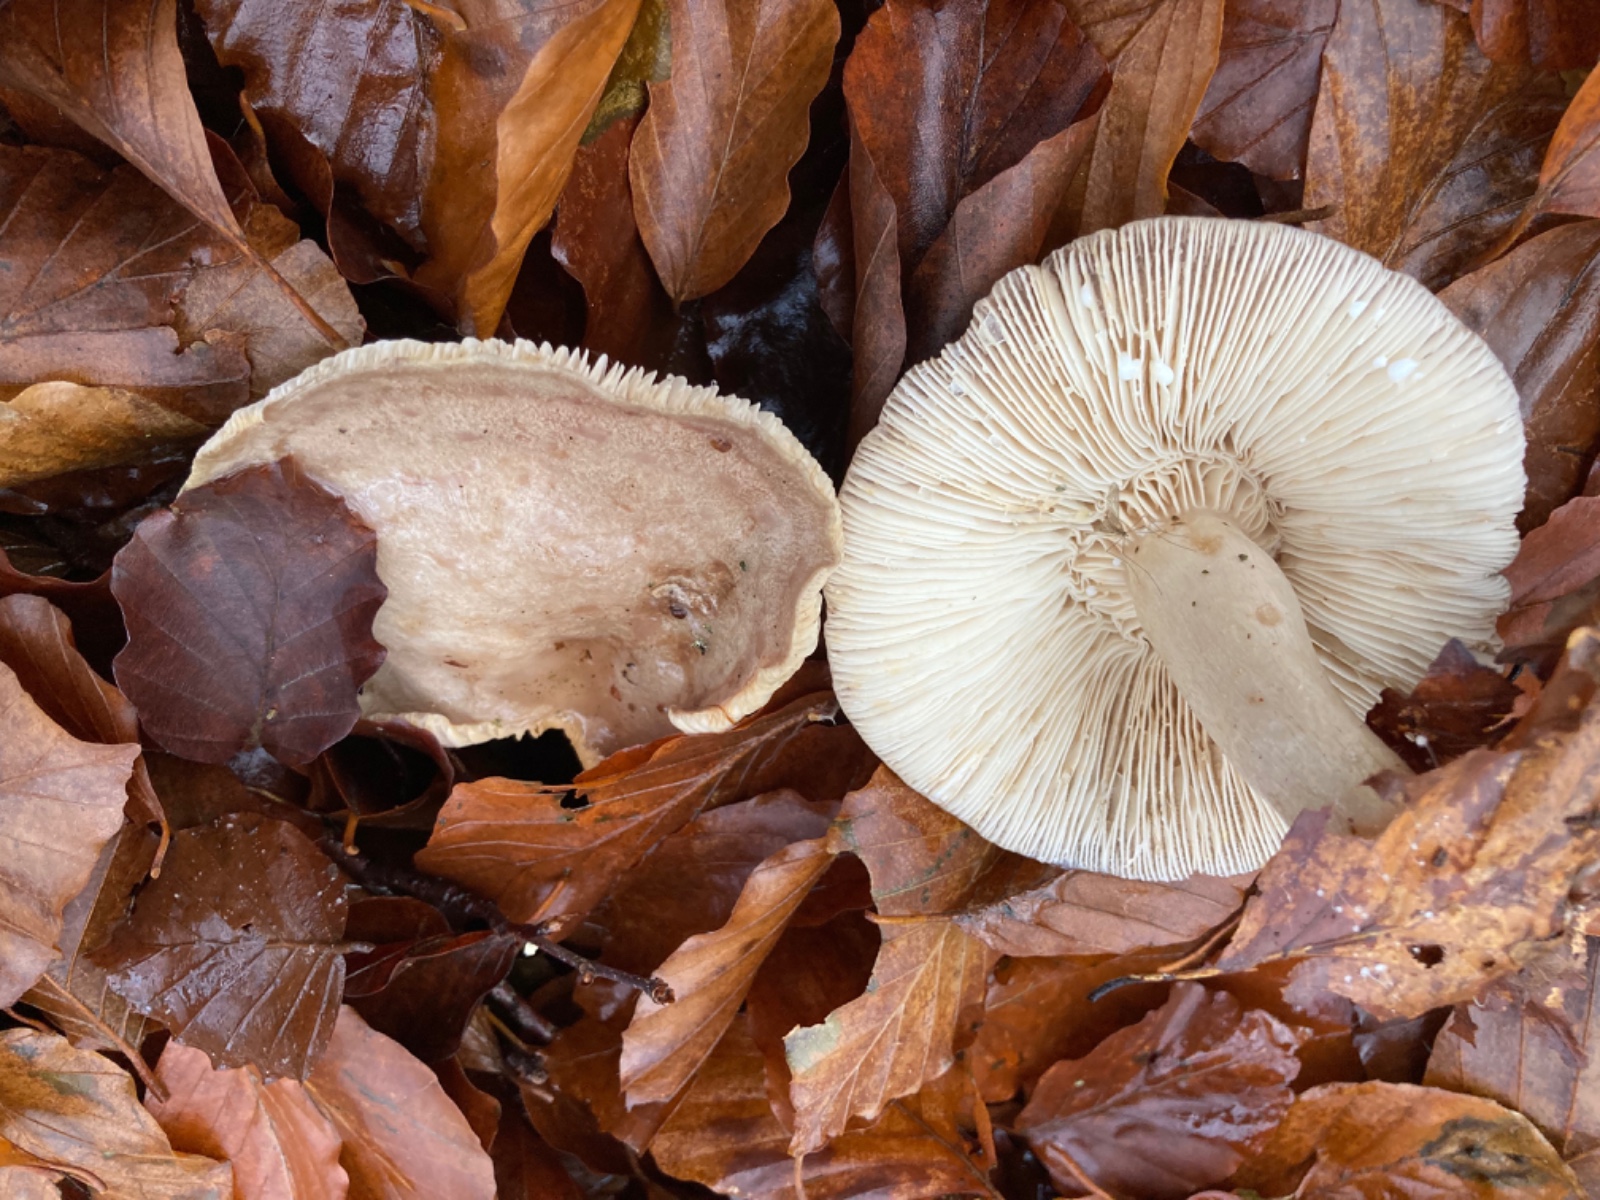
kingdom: Fungi
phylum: Basidiomycota
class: Agaricomycetes
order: Russulales
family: Russulaceae
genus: Lactarius
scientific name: Lactarius blennius
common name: dråbeplettet mælkehat
